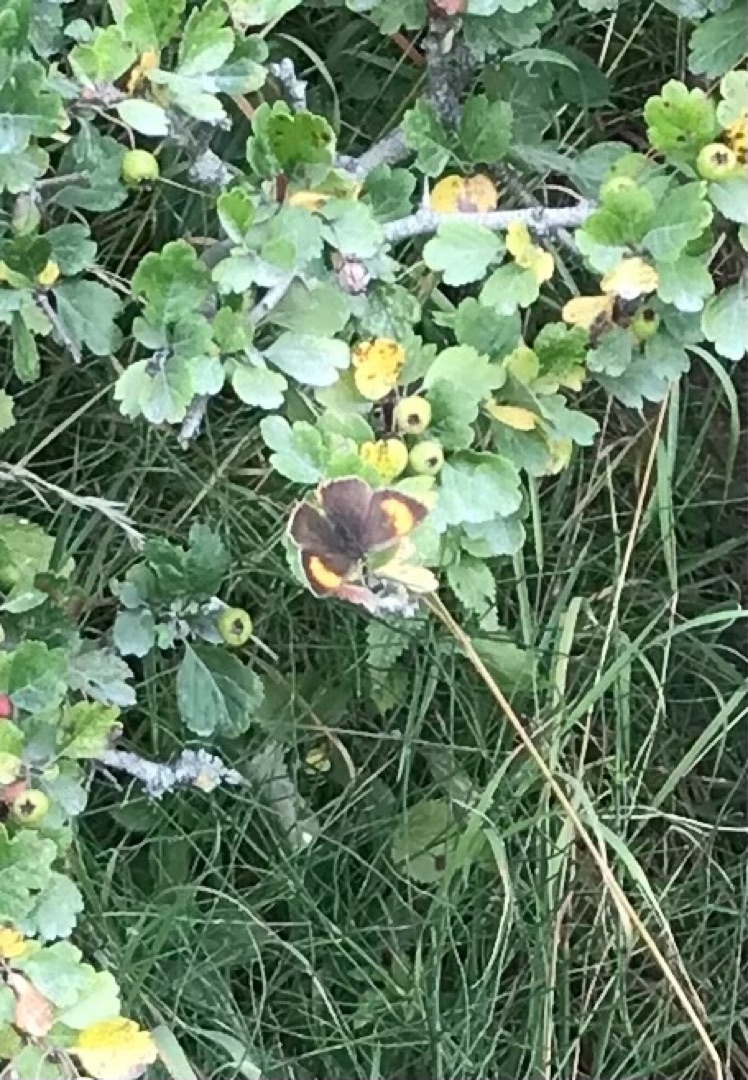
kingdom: Animalia
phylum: Arthropoda
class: Insecta
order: Lepidoptera
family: Lycaenidae
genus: Thecla
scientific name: Thecla betulae
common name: Guldhale
